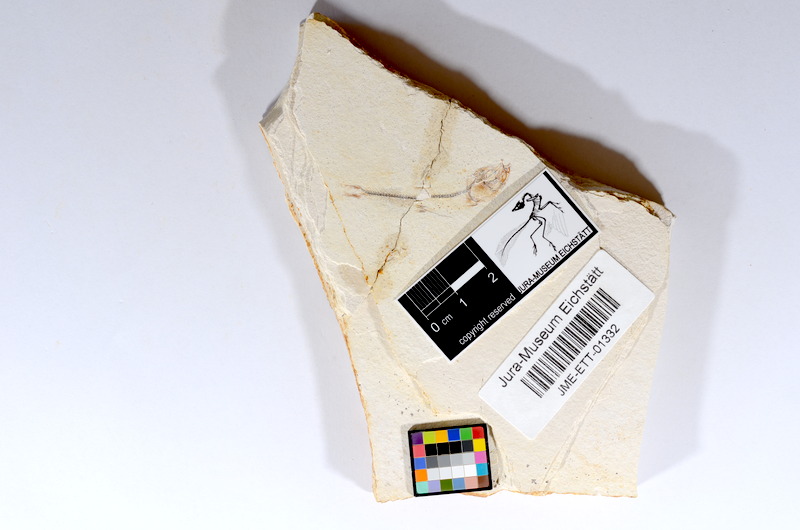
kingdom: Animalia
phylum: Chordata
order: Salmoniformes
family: Orthogonikleithridae
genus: Orthogonikleithrus
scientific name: Orthogonikleithrus hoelli
